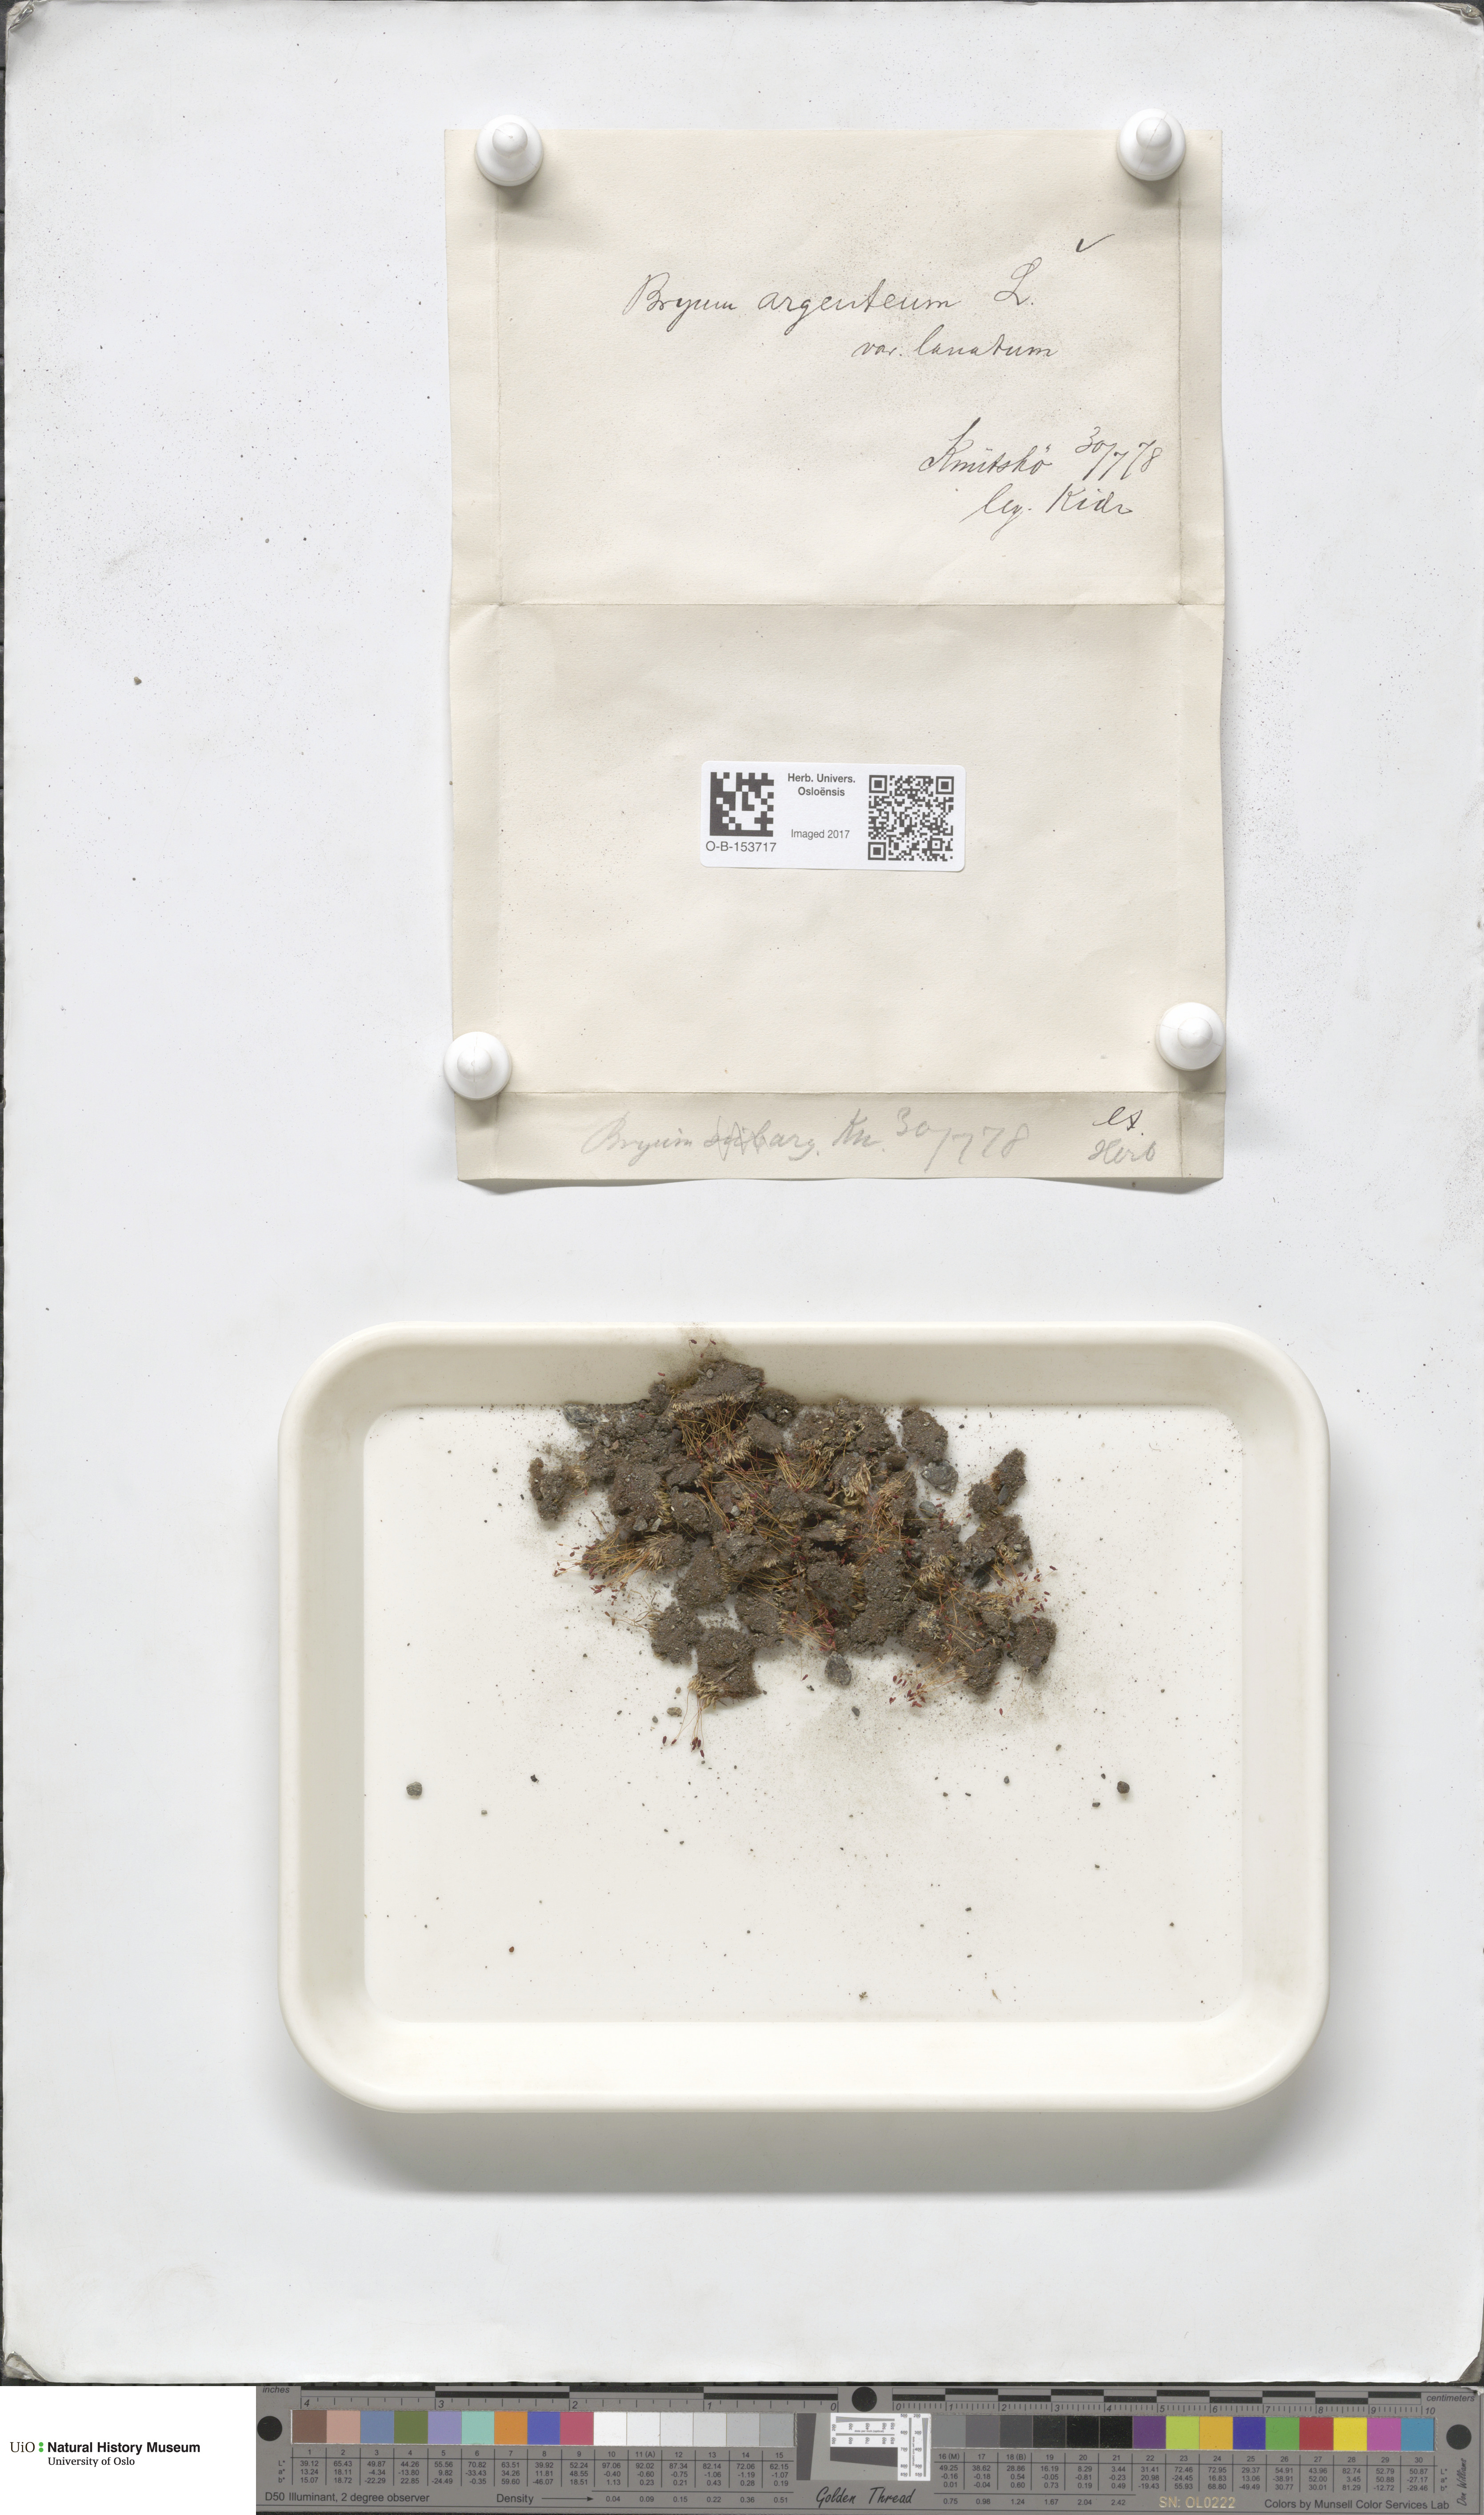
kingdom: Plantae
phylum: Bryophyta
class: Bryopsida
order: Bryales
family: Bryaceae
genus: Bryum
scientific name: Bryum argenteum
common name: Silver-moss
